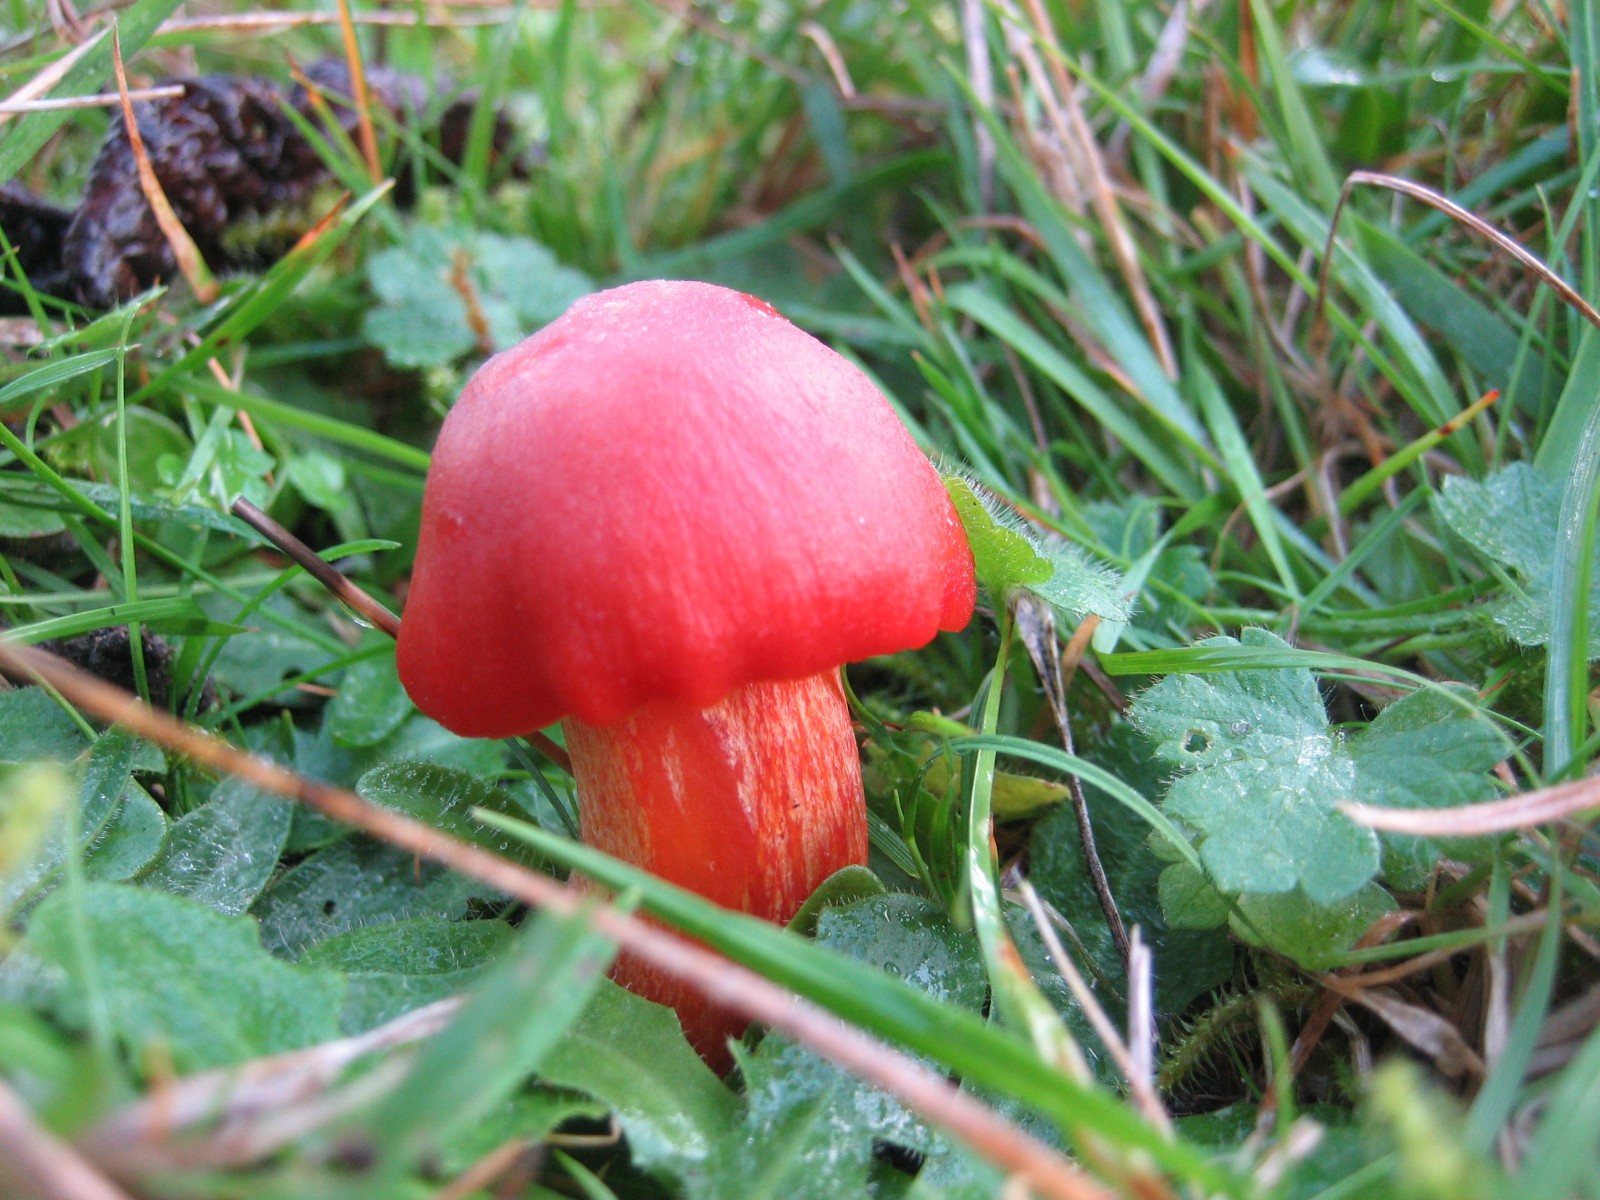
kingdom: Fungi
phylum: Basidiomycota
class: Agaricomycetes
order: Agaricales
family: Hygrophoraceae
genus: Hygrocybe
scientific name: Hygrocybe punicea
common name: skarlagen-vokshat
